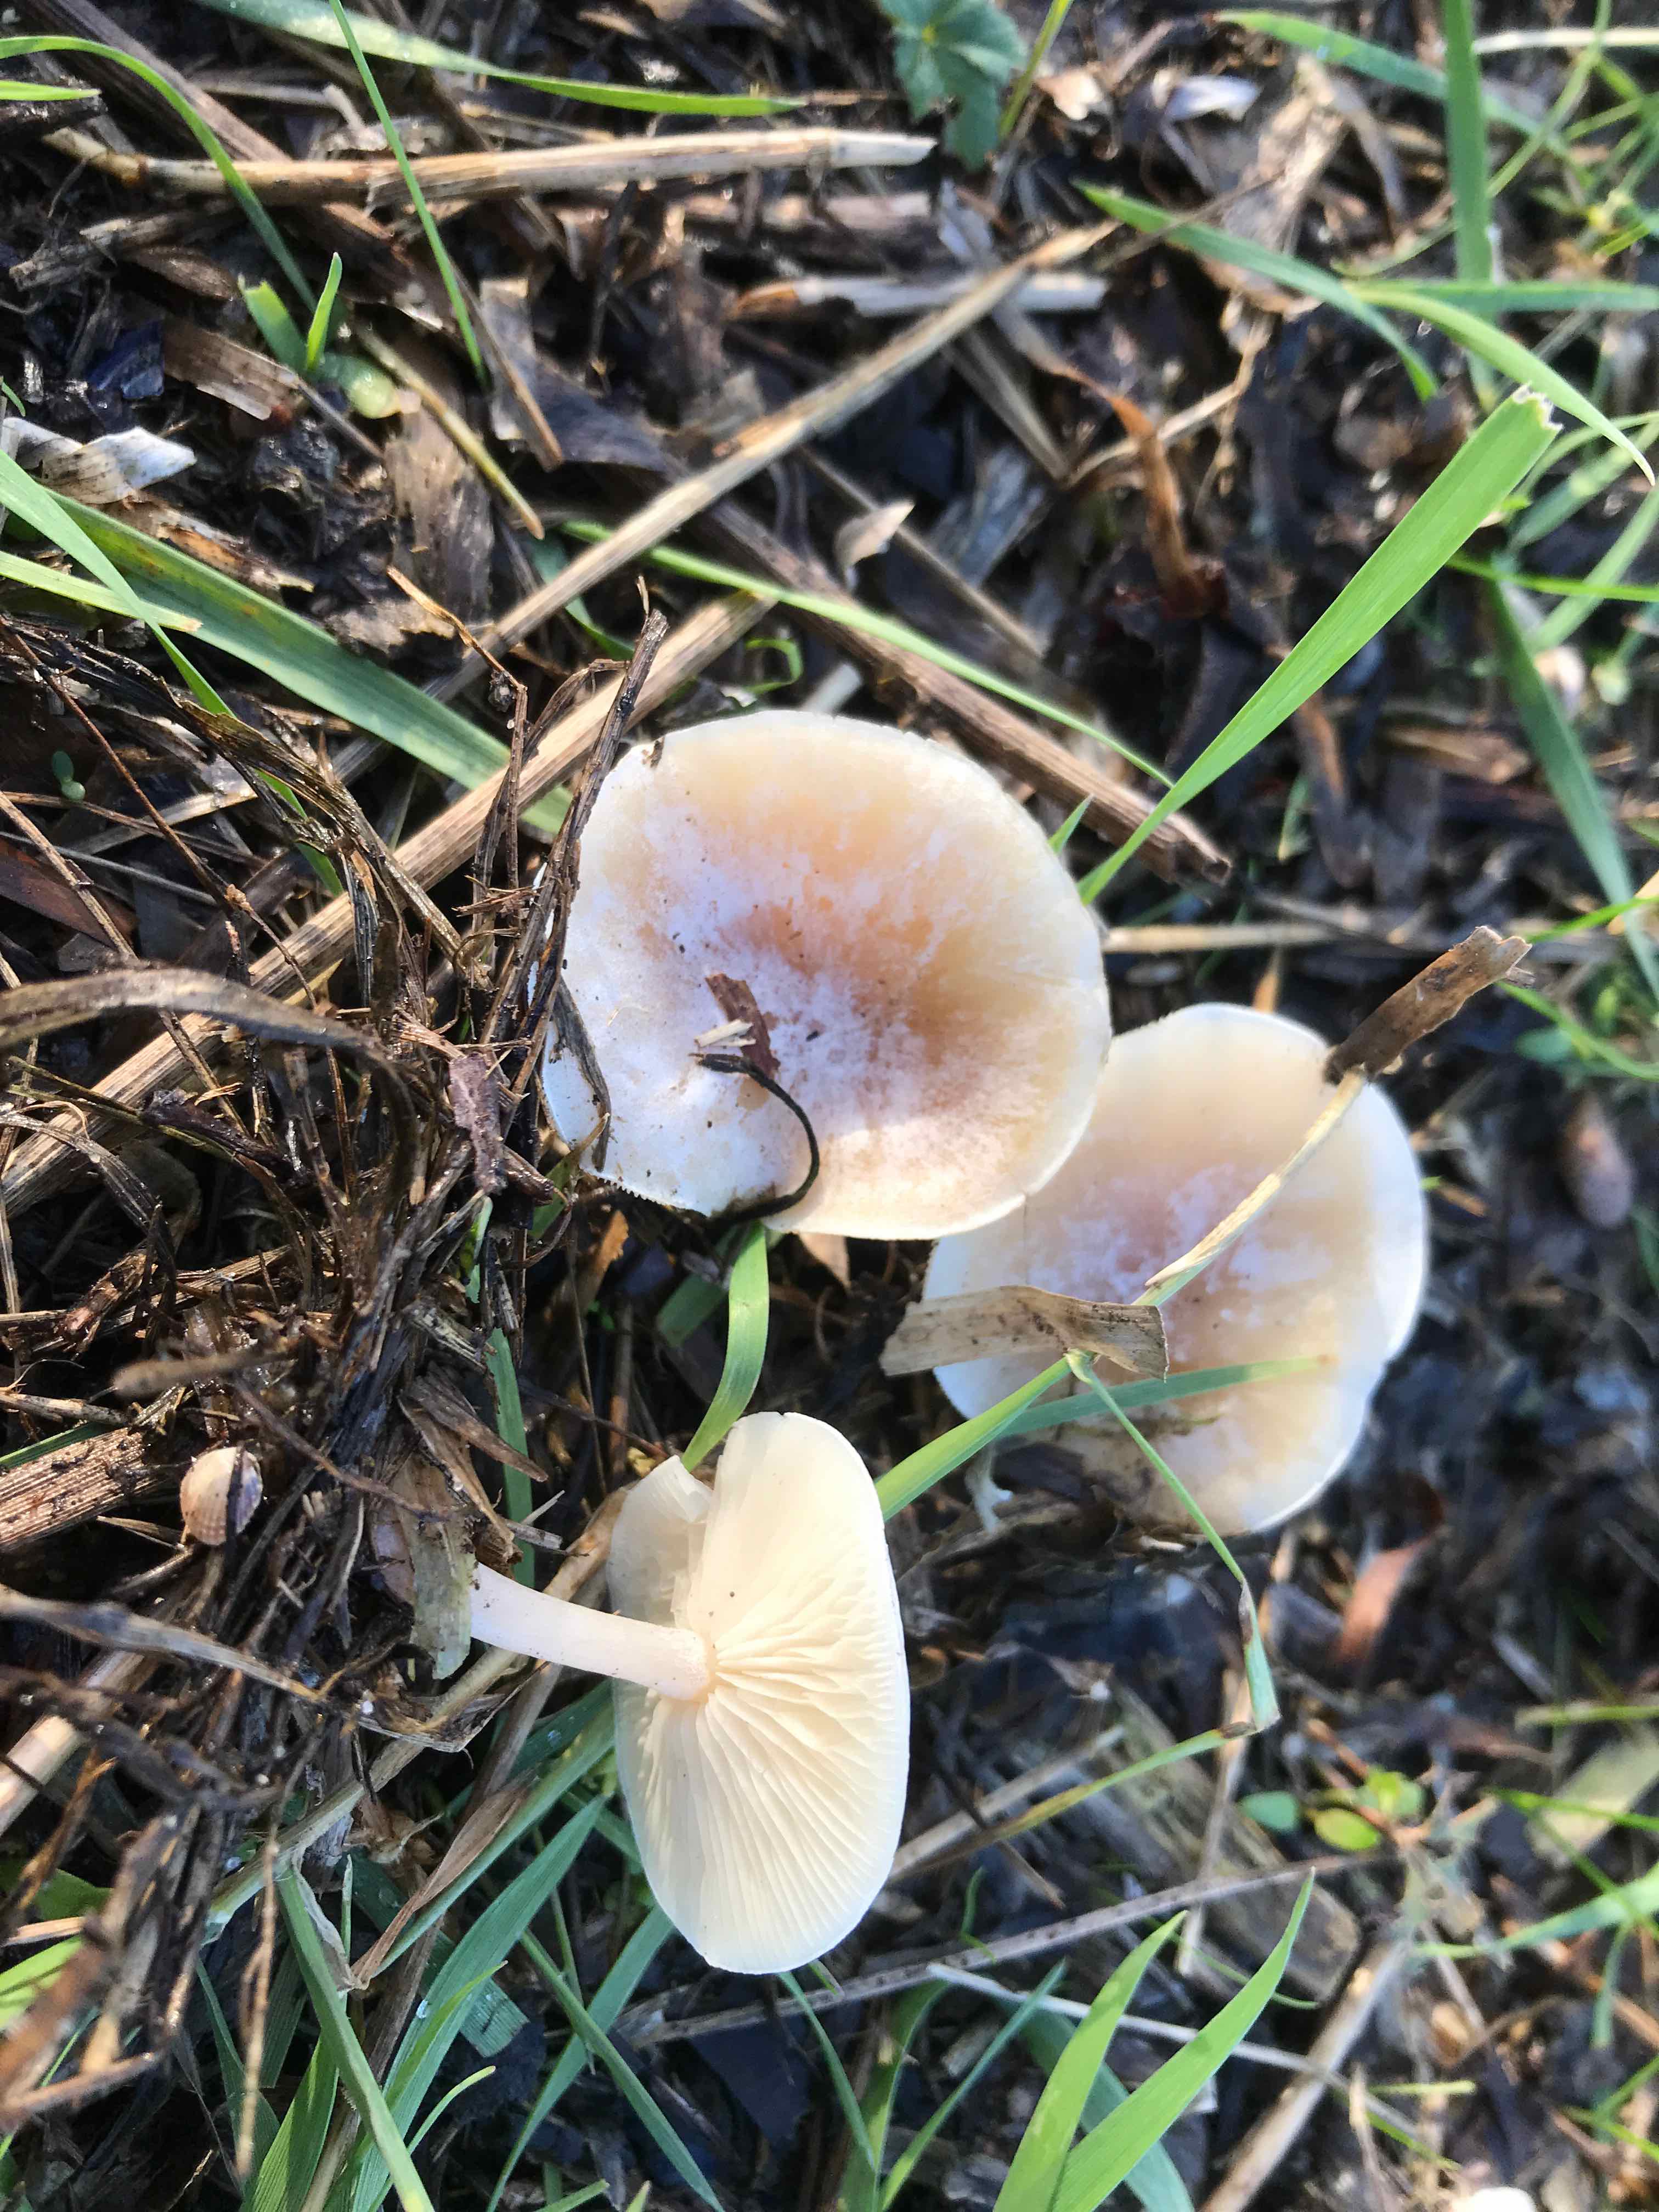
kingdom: Fungi
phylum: Basidiomycota
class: Agaricomycetes
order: Agaricales
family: Tricholomataceae
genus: Clitocybe
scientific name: Clitocybe
